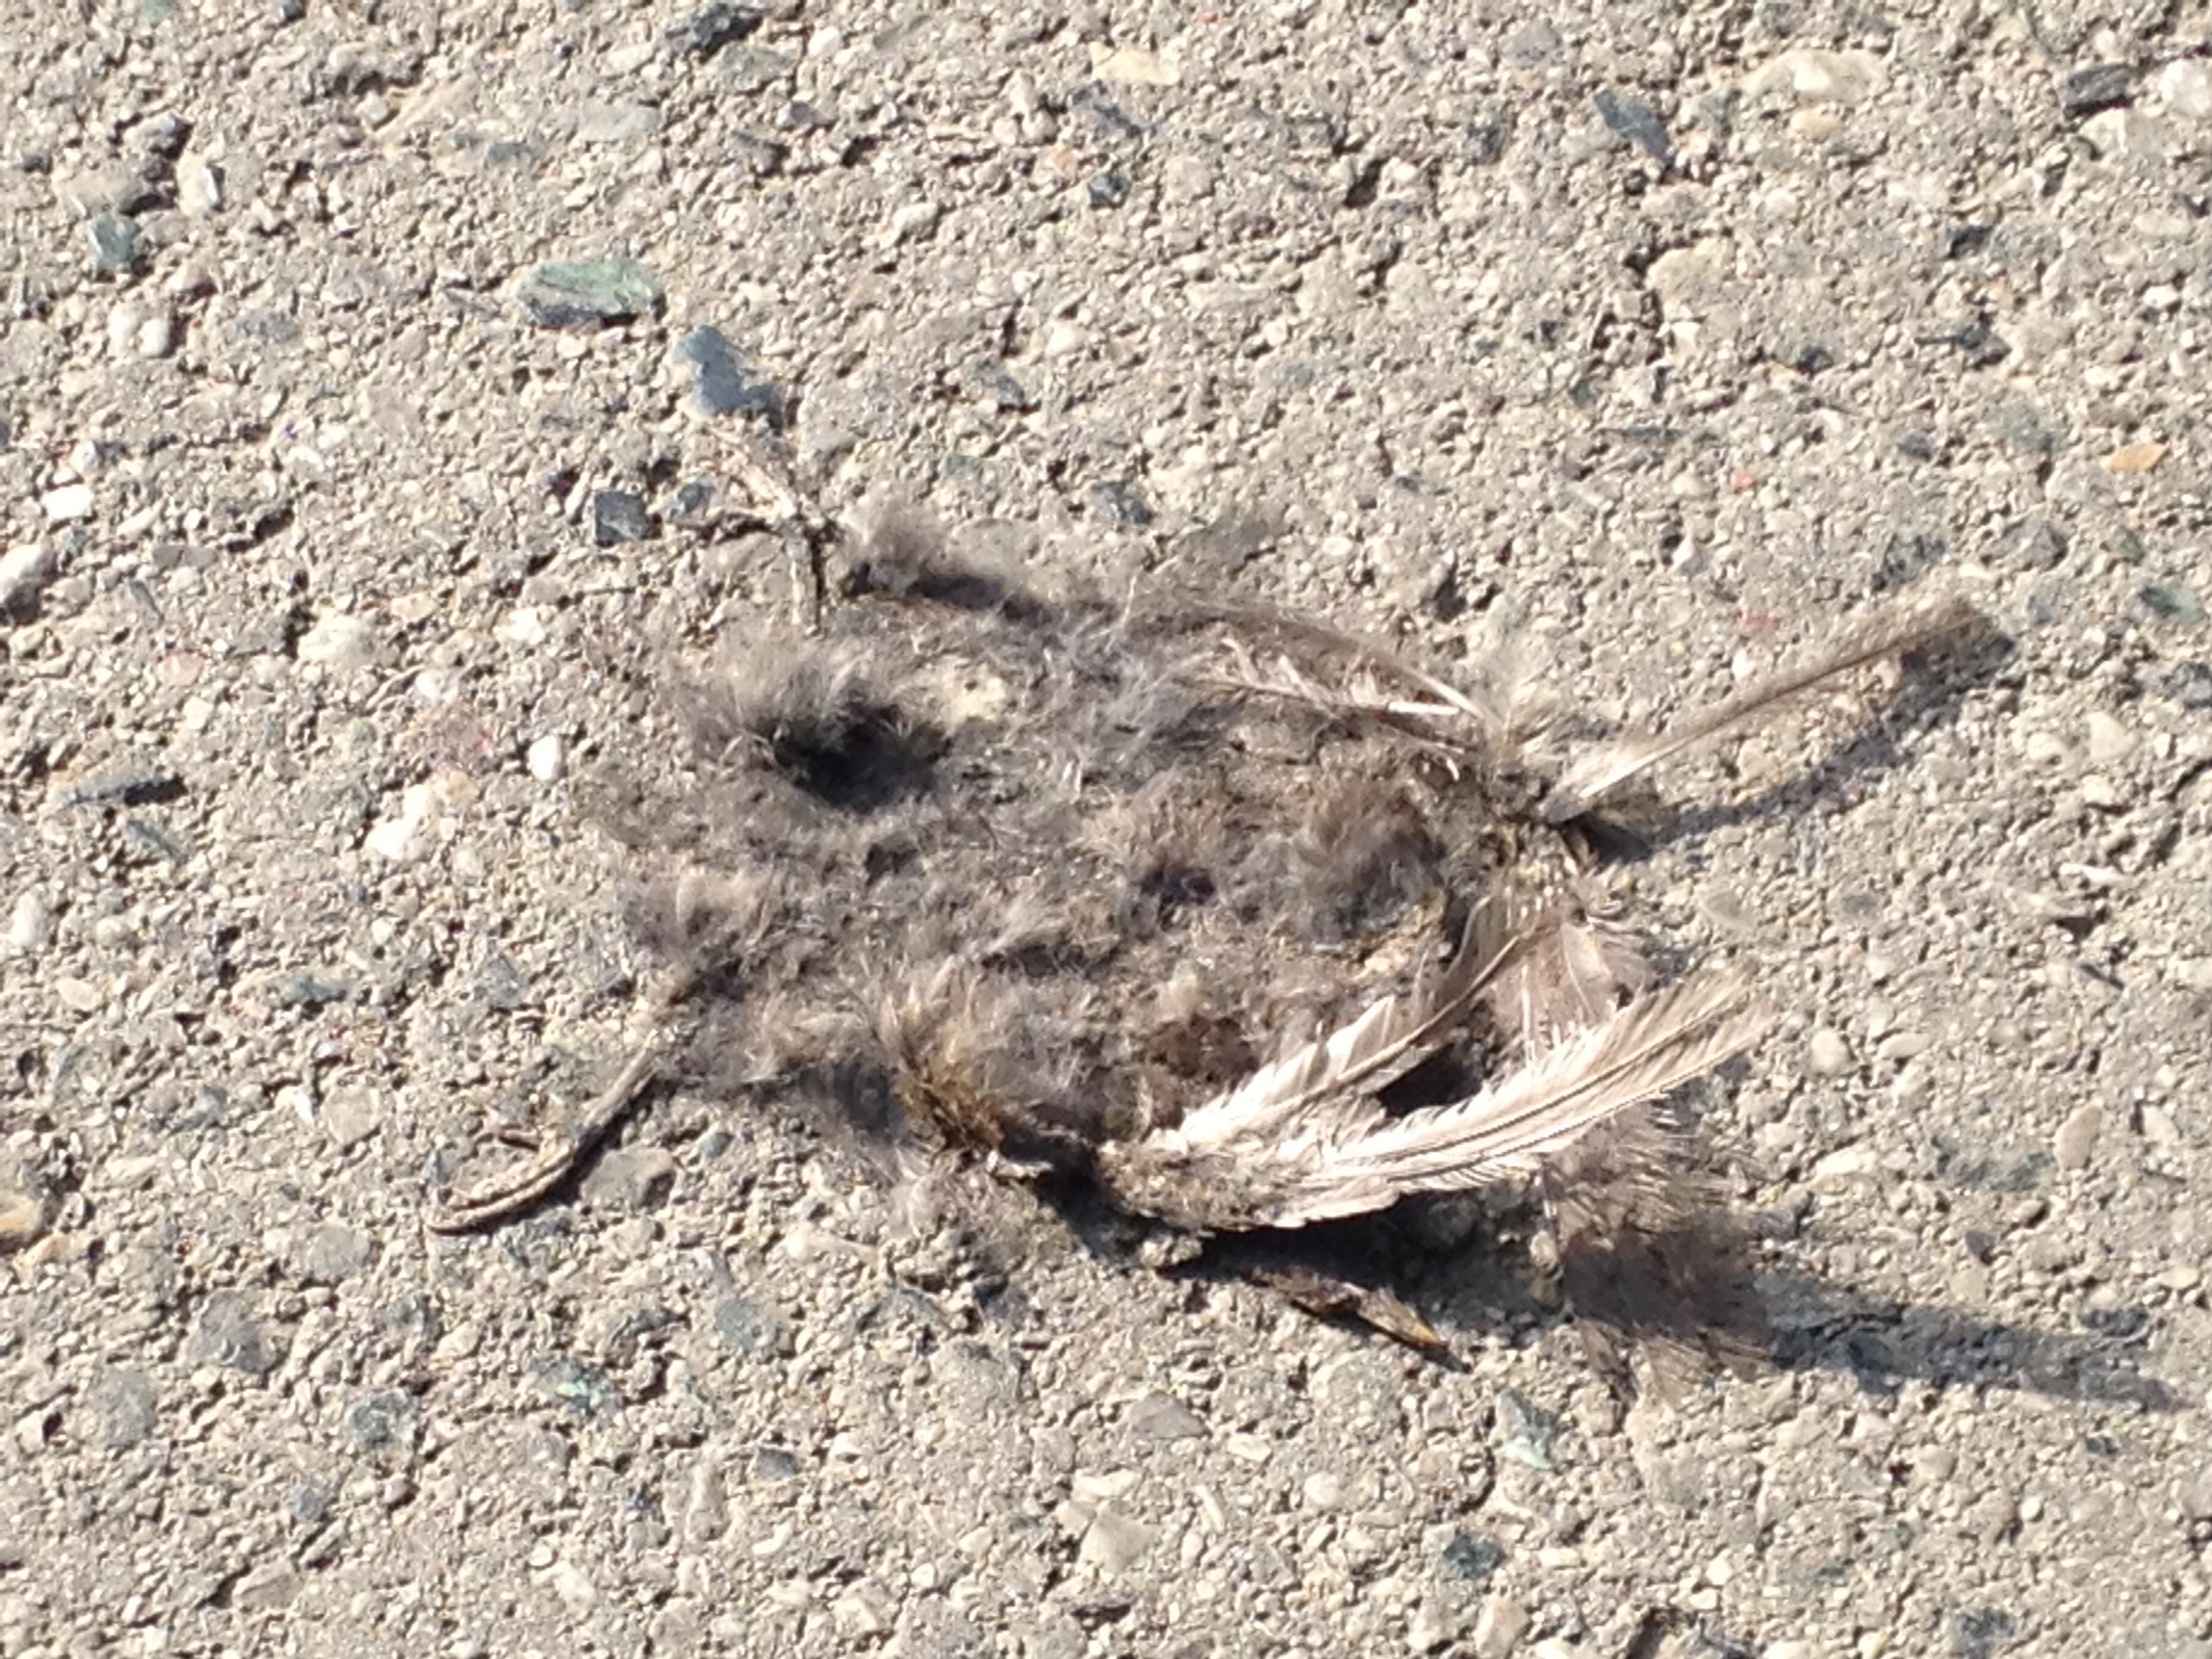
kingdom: Animalia
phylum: Chordata
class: Aves
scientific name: Aves
